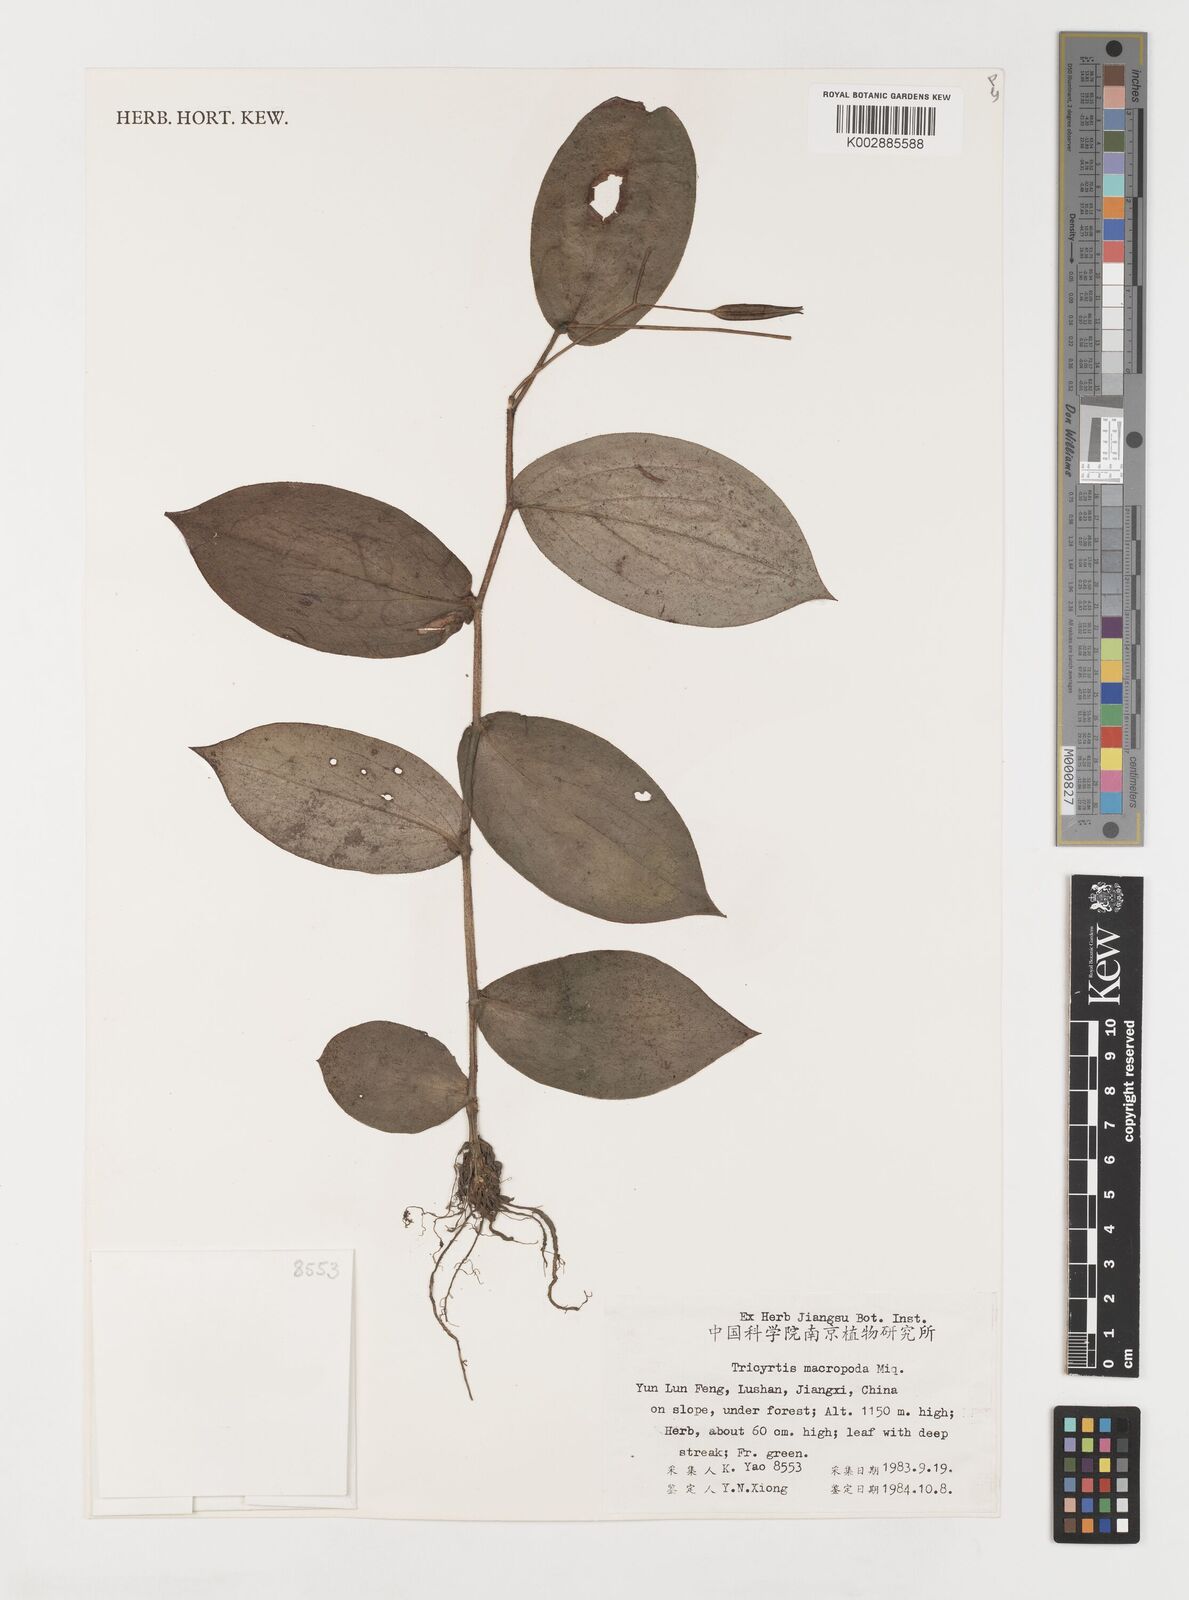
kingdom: Plantae
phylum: Tracheophyta
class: Liliopsida
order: Liliales
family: Liliaceae
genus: Tricyrtis
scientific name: Tricyrtis macropoda
